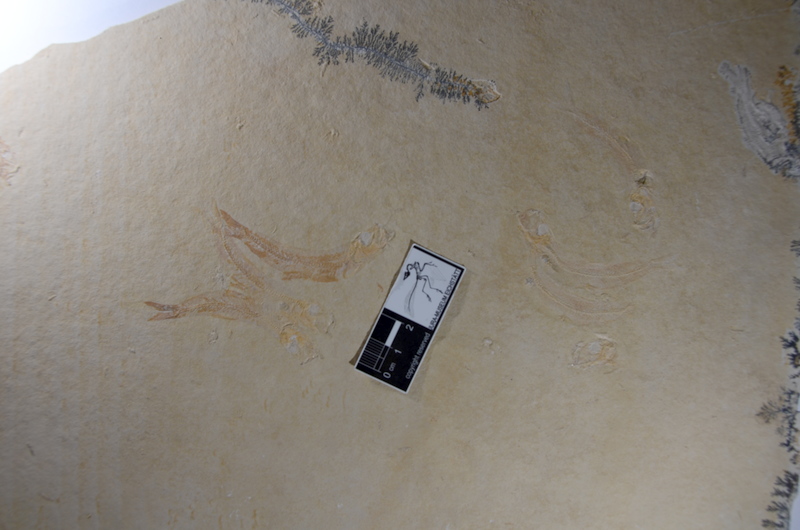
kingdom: Animalia
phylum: Chordata
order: Salmoniformes
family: Orthogonikleithridae
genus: Leptolepides
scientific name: Leptolepides sprattiformis
